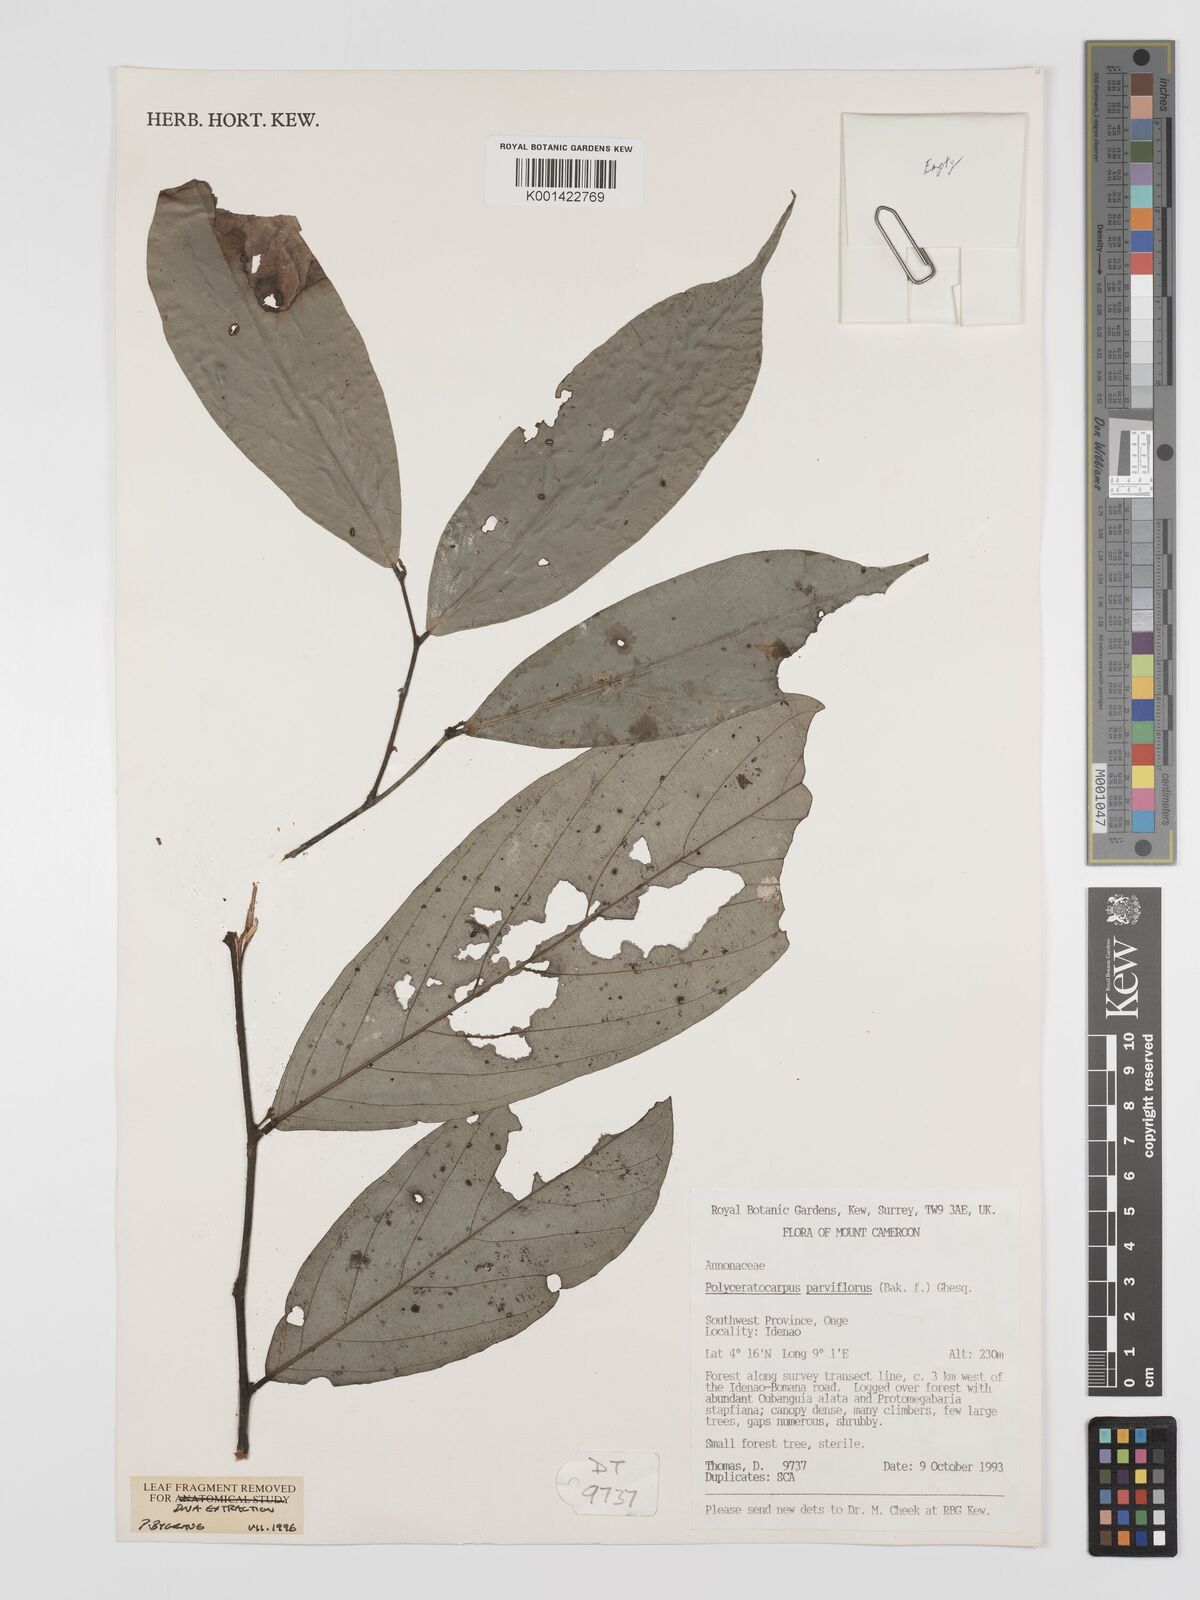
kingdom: Plantae
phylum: Tracheophyta
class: Magnoliopsida
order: Magnoliales
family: Annonaceae
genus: Polyceratocarpus
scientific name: Polyceratocarpus parviflorus
